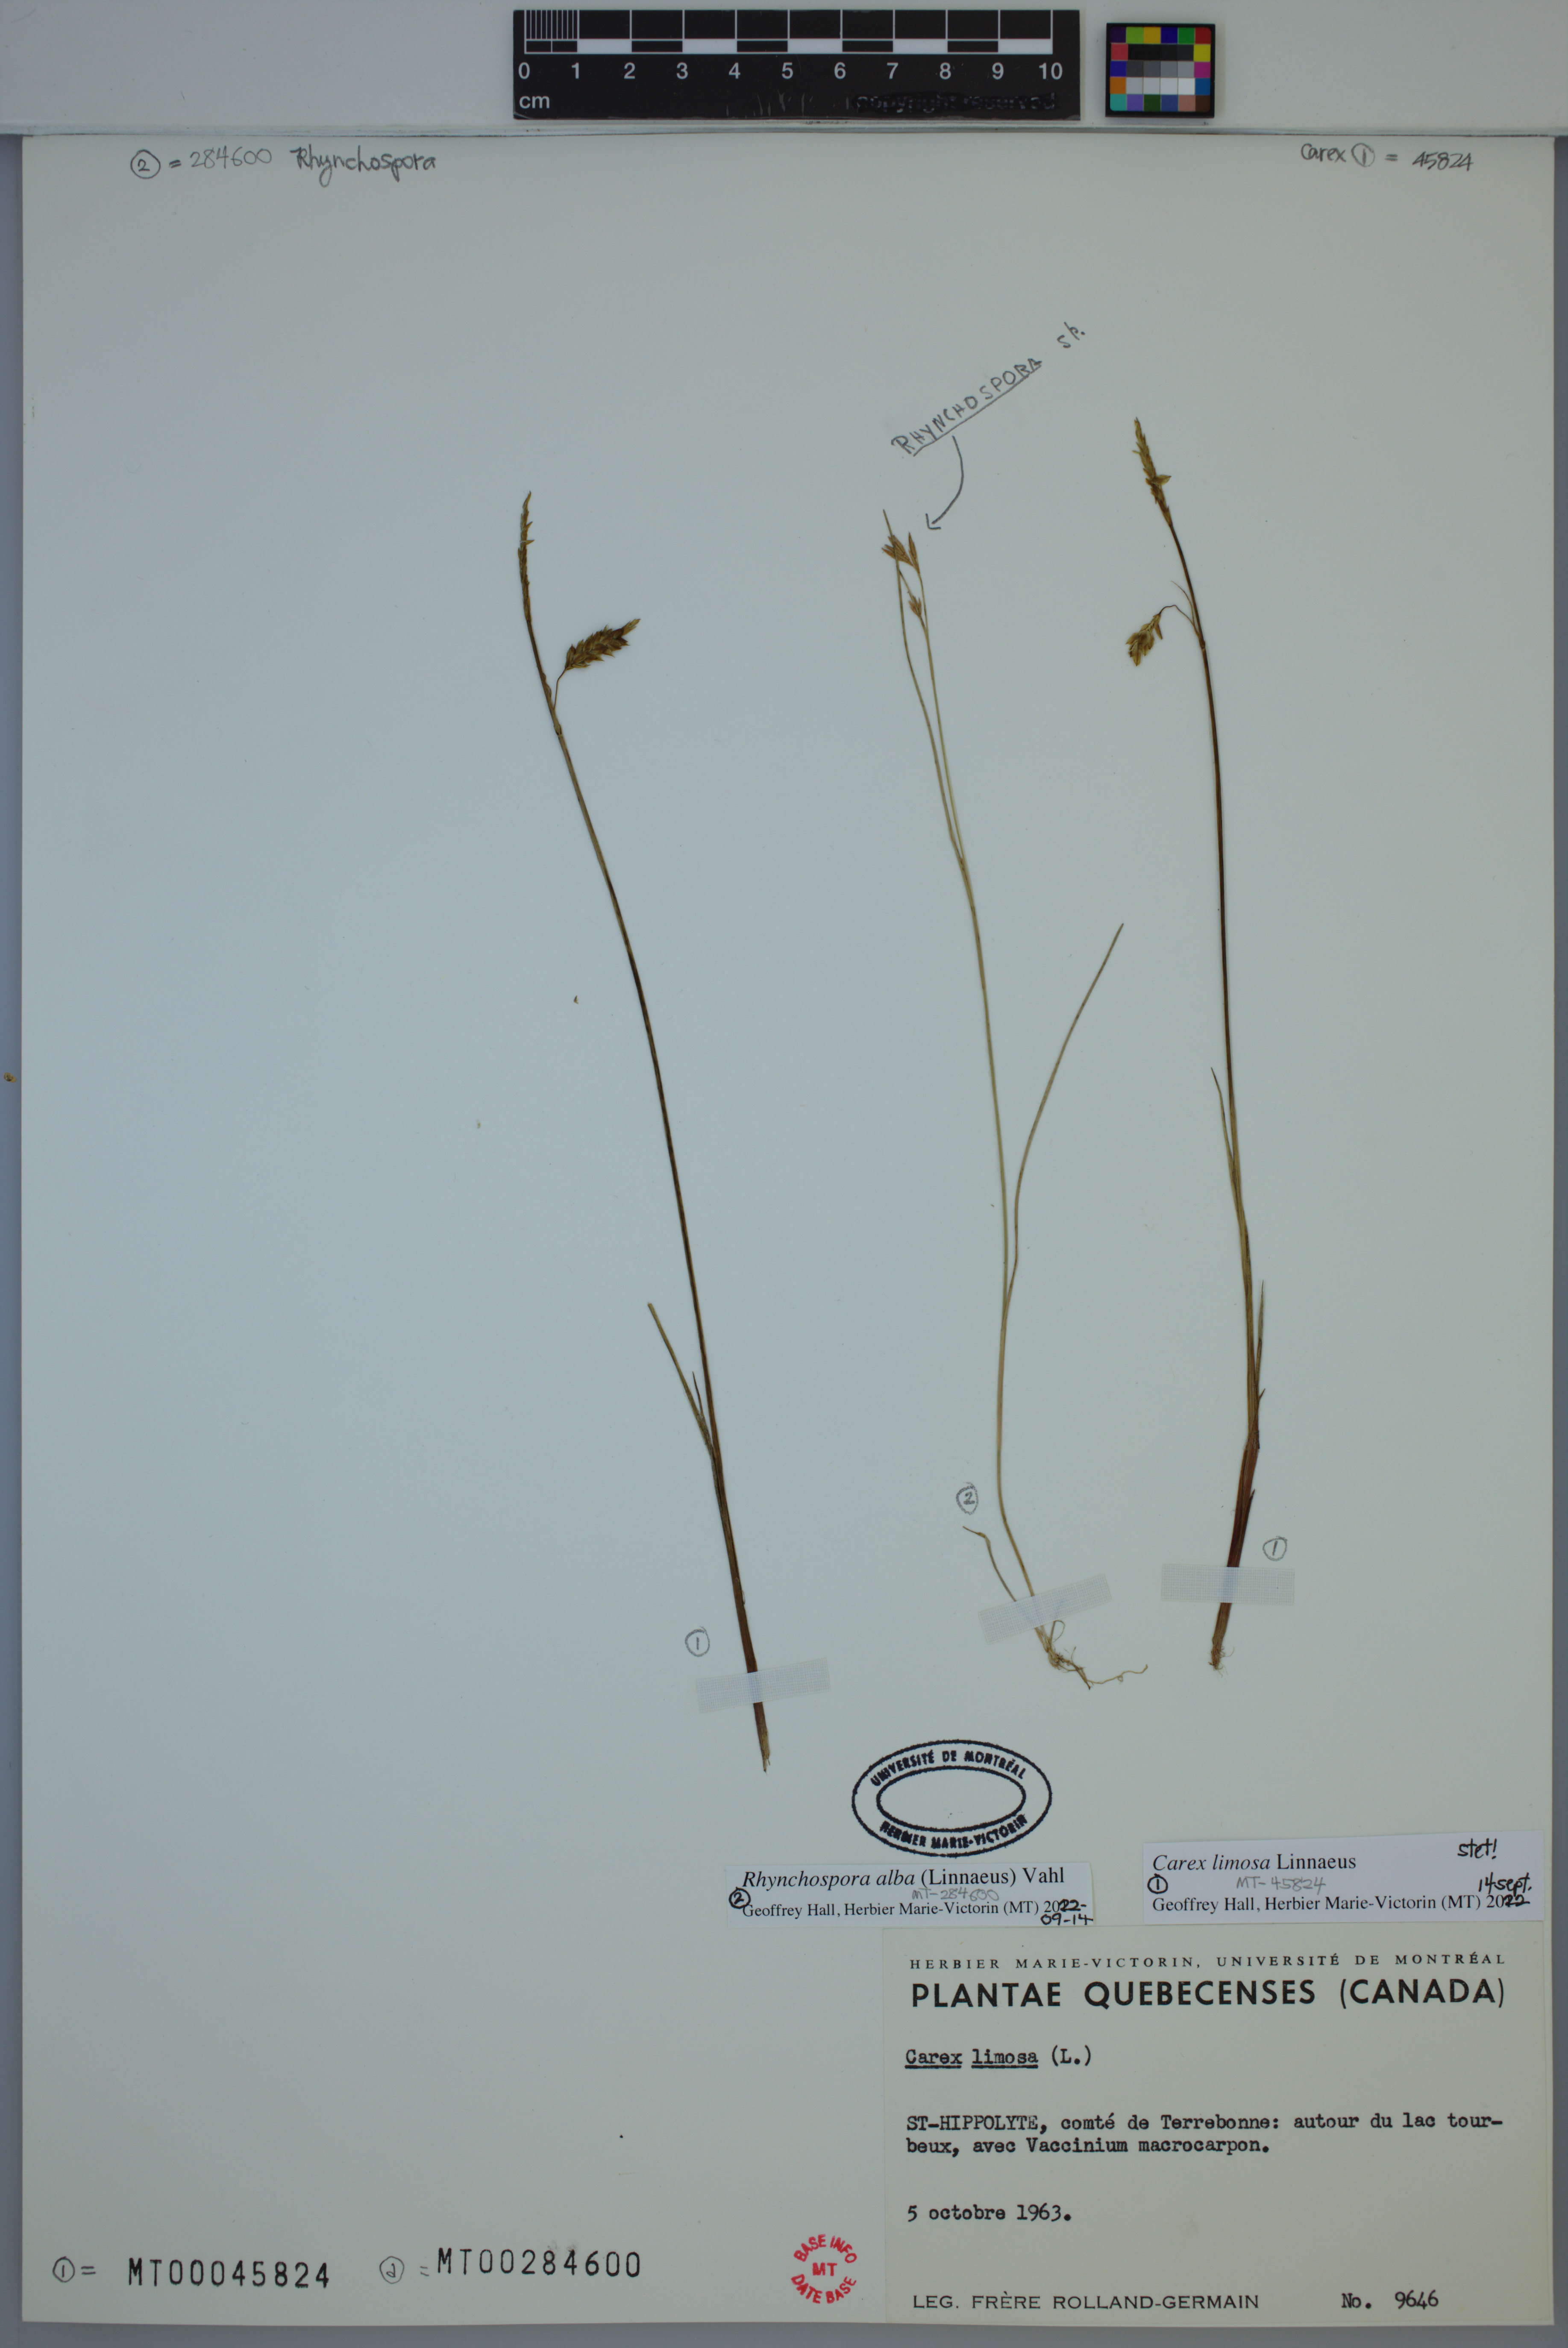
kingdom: Plantae
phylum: Tracheophyta
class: Liliopsida
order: Poales
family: Cyperaceae
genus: Carex
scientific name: Carex limosa
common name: Bog sedge
